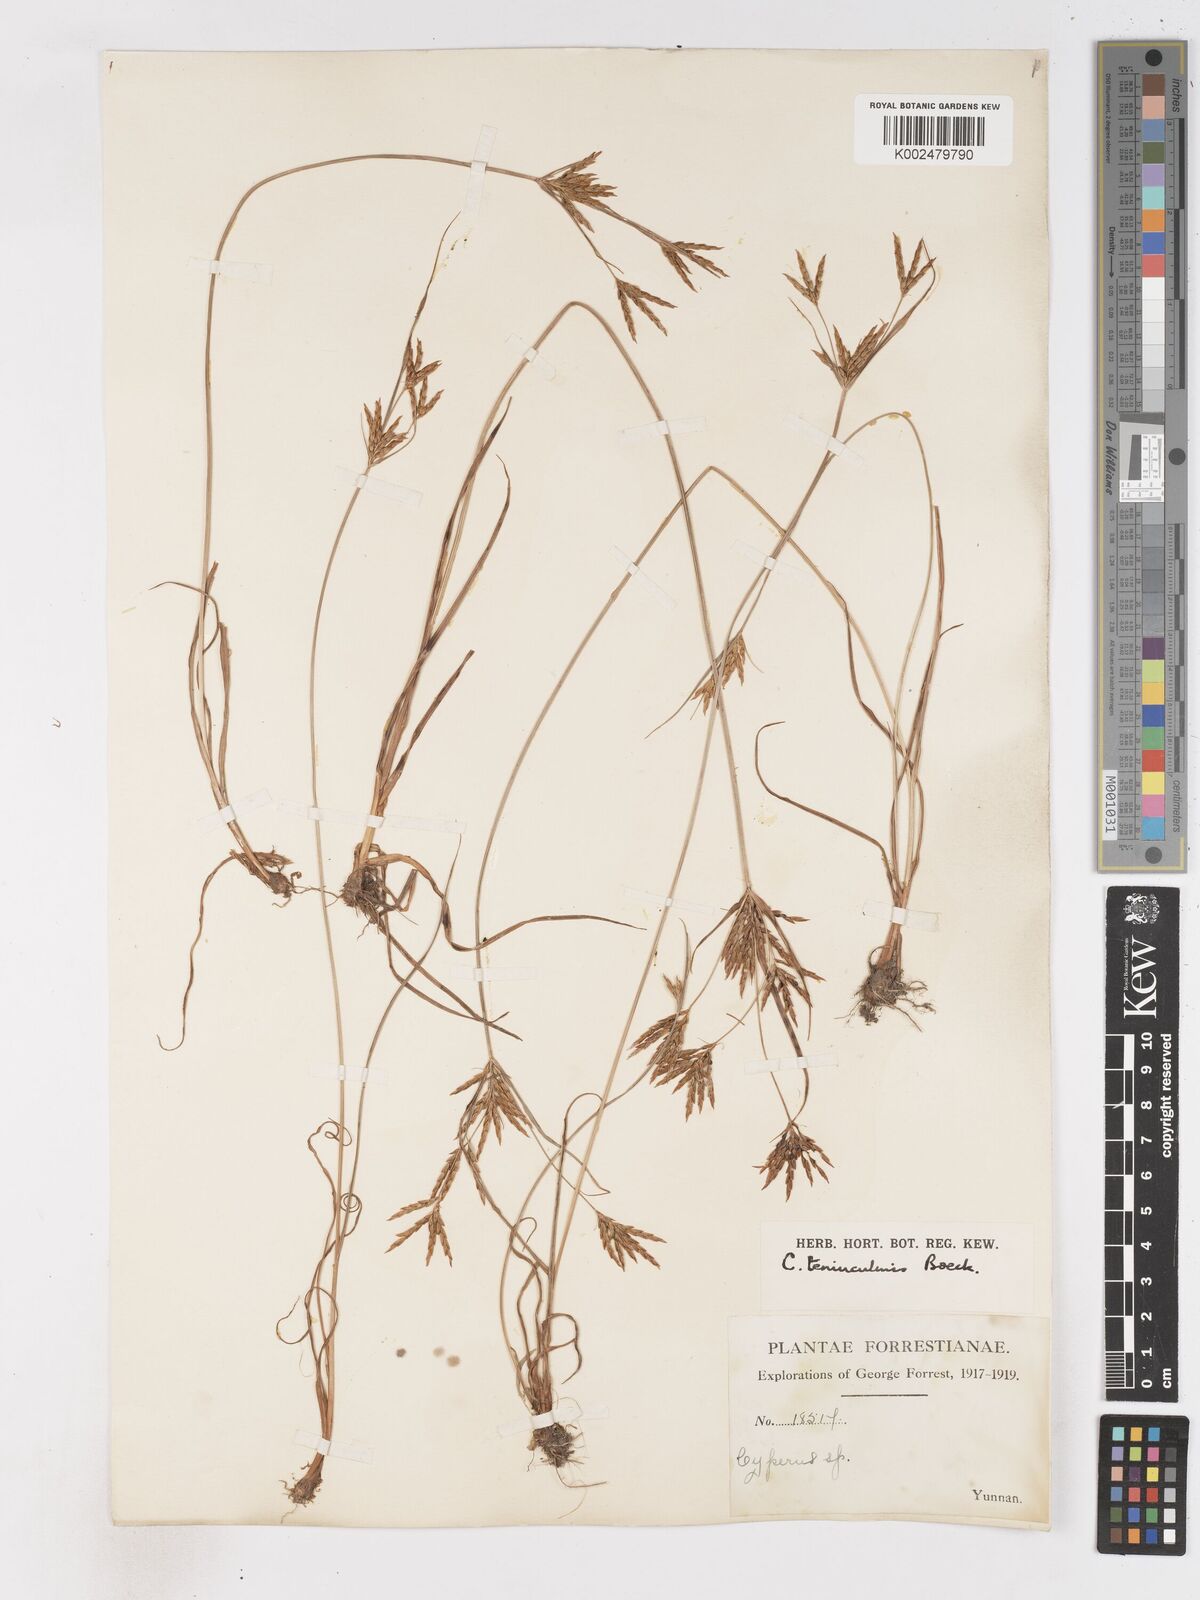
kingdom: Plantae
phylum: Tracheophyta
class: Liliopsida
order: Poales
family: Cyperaceae
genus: Cyperus
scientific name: Cyperus tenuiculmis
